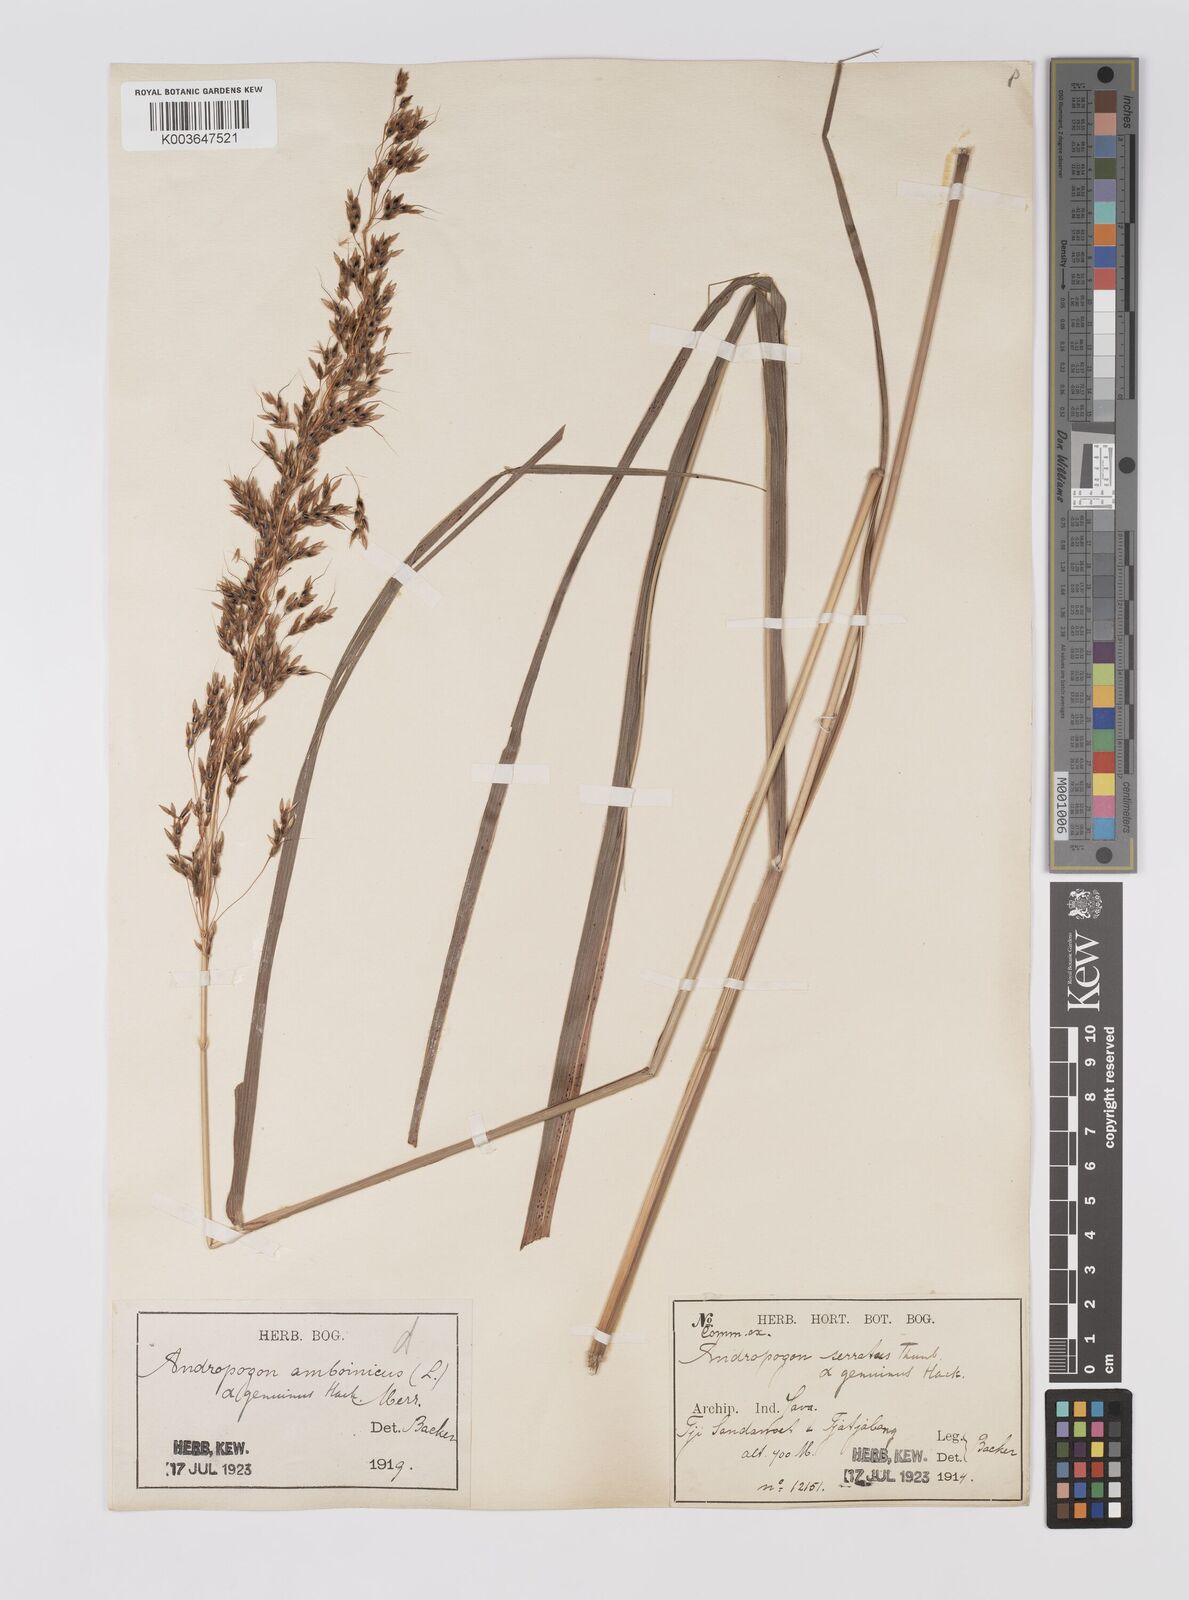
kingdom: Plantae
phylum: Tracheophyta
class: Liliopsida
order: Poales
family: Poaceae
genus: Sorghum
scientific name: Sorghum nitidum
